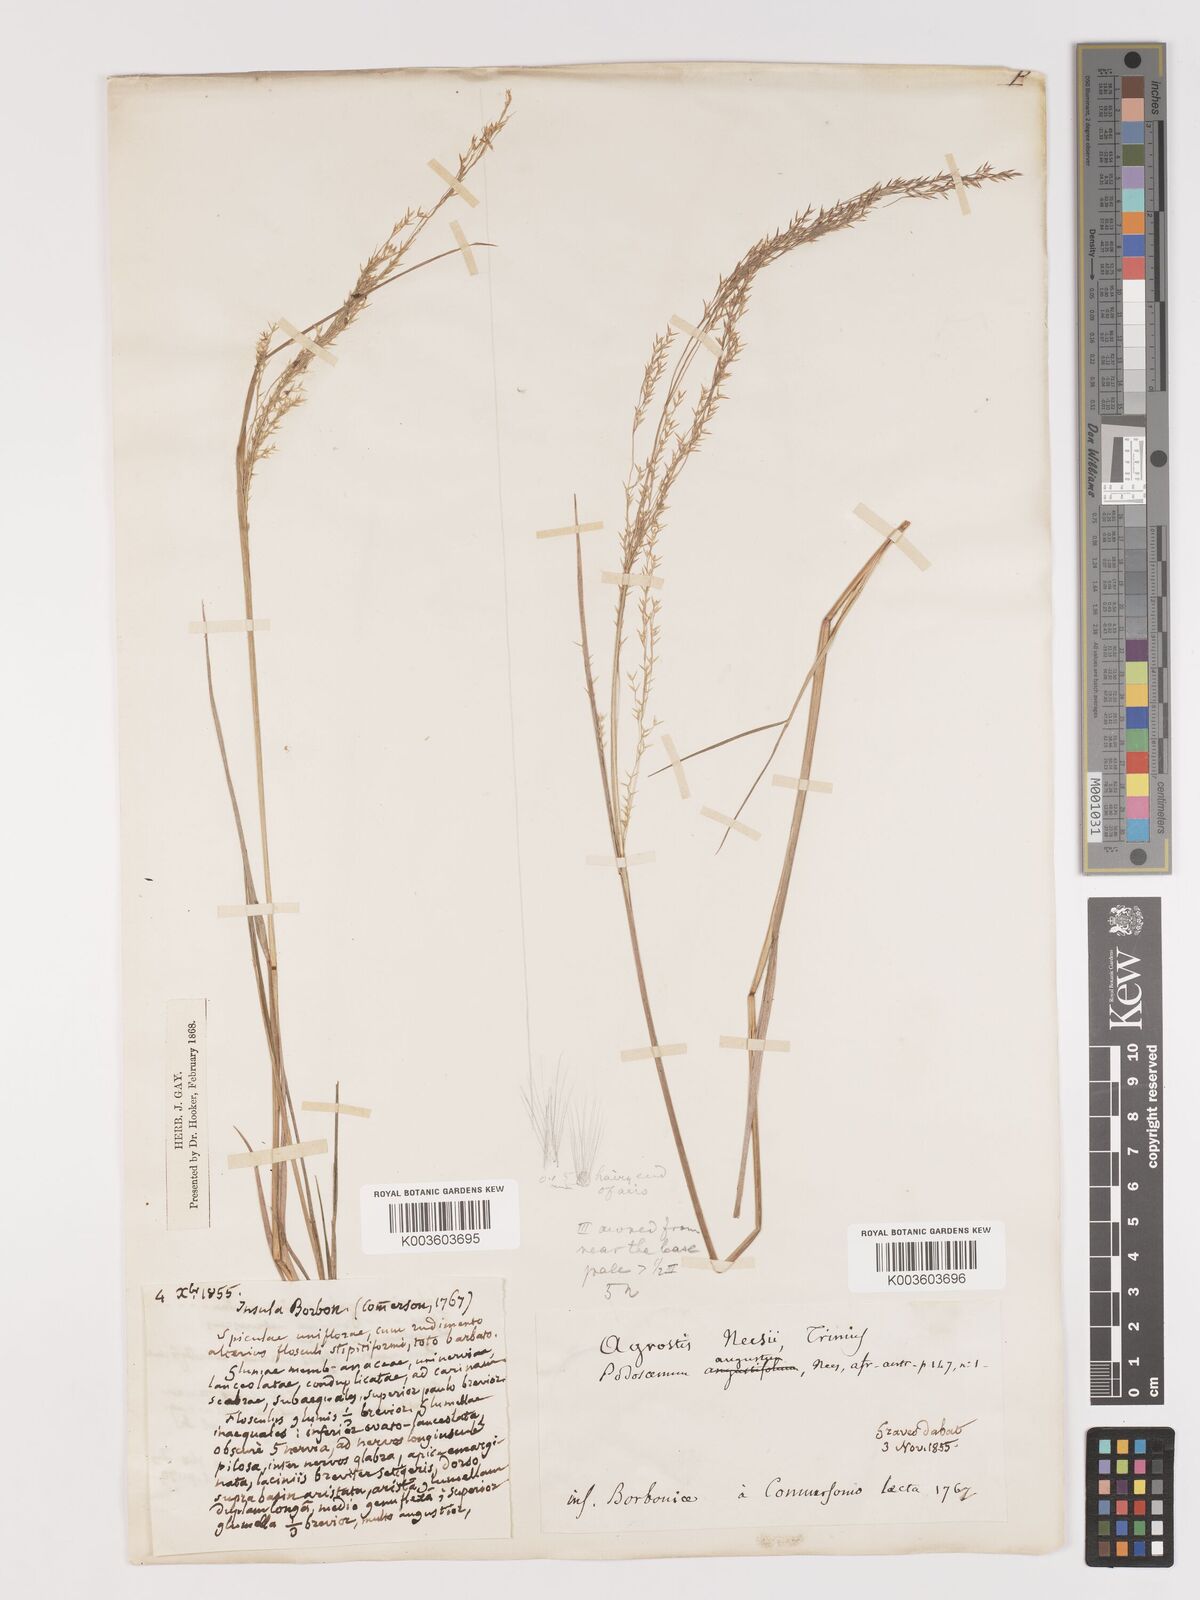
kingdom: Plantae
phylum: Tracheophyta
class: Liliopsida
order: Poales
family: Poaceae
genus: Agrostis
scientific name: Agrostis salaziensis
